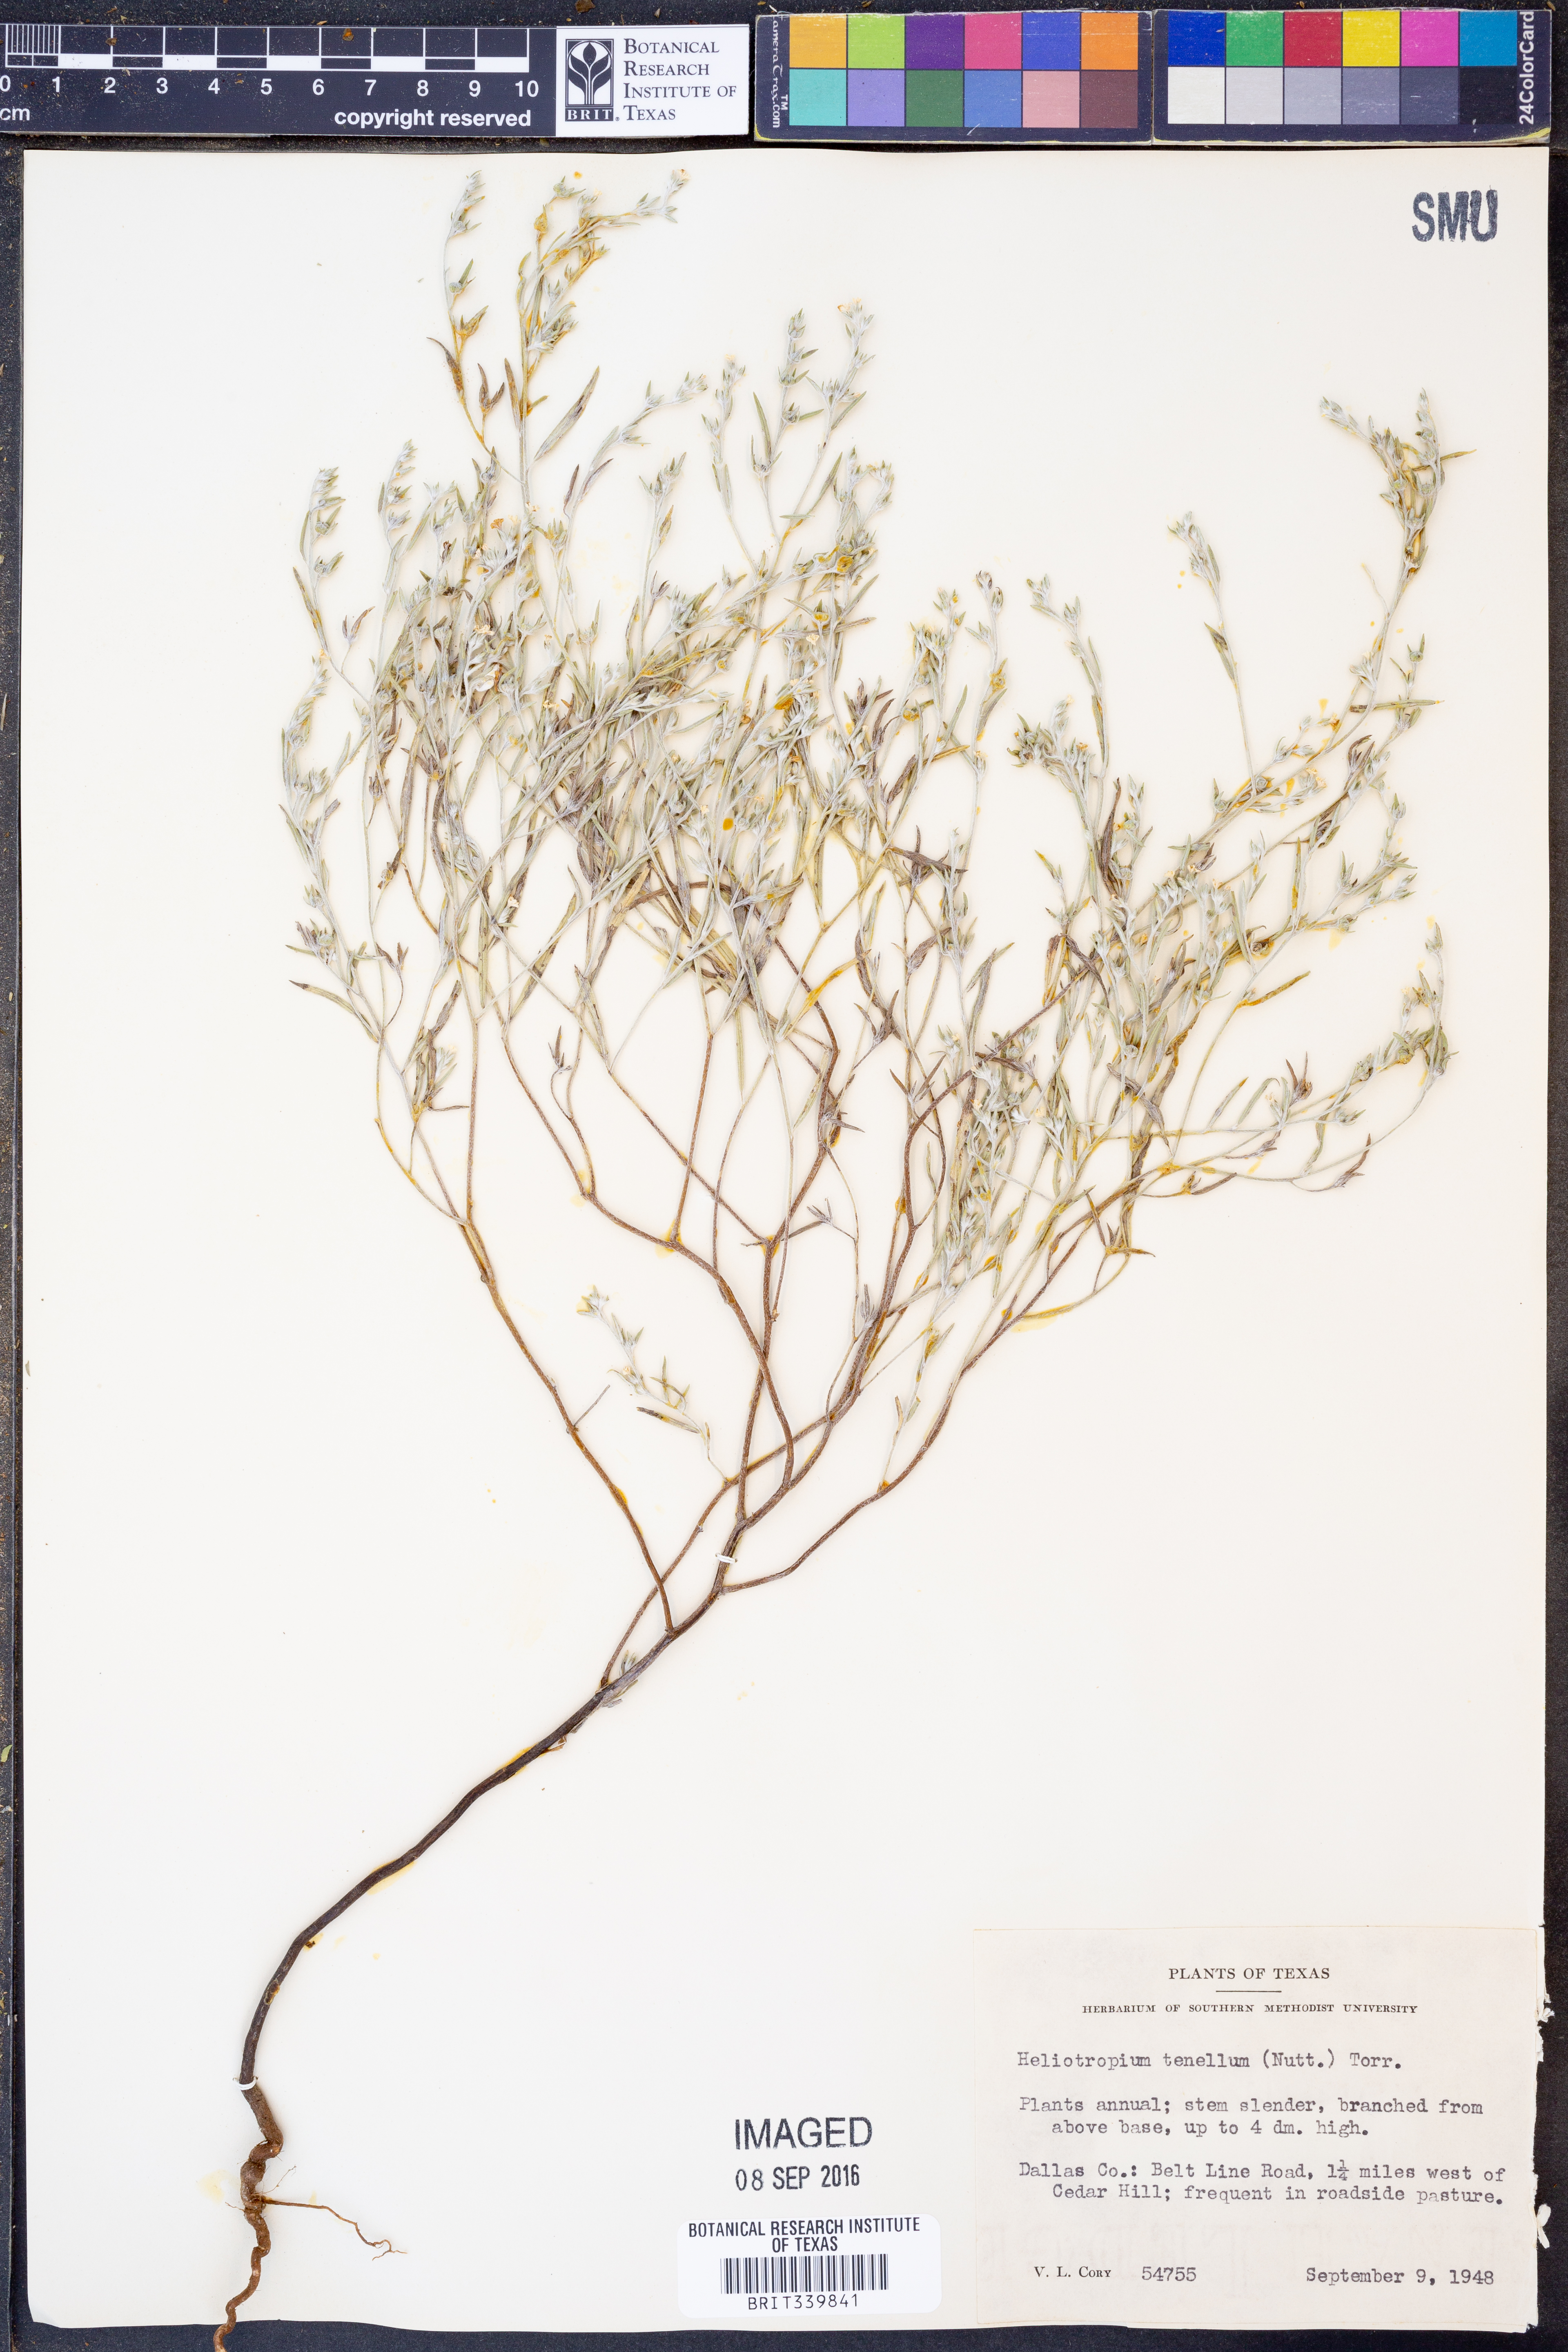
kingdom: Plantae
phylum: Tracheophyta
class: Magnoliopsida
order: Boraginales
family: Heliotropiaceae
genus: Euploca
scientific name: Euploca tenella
